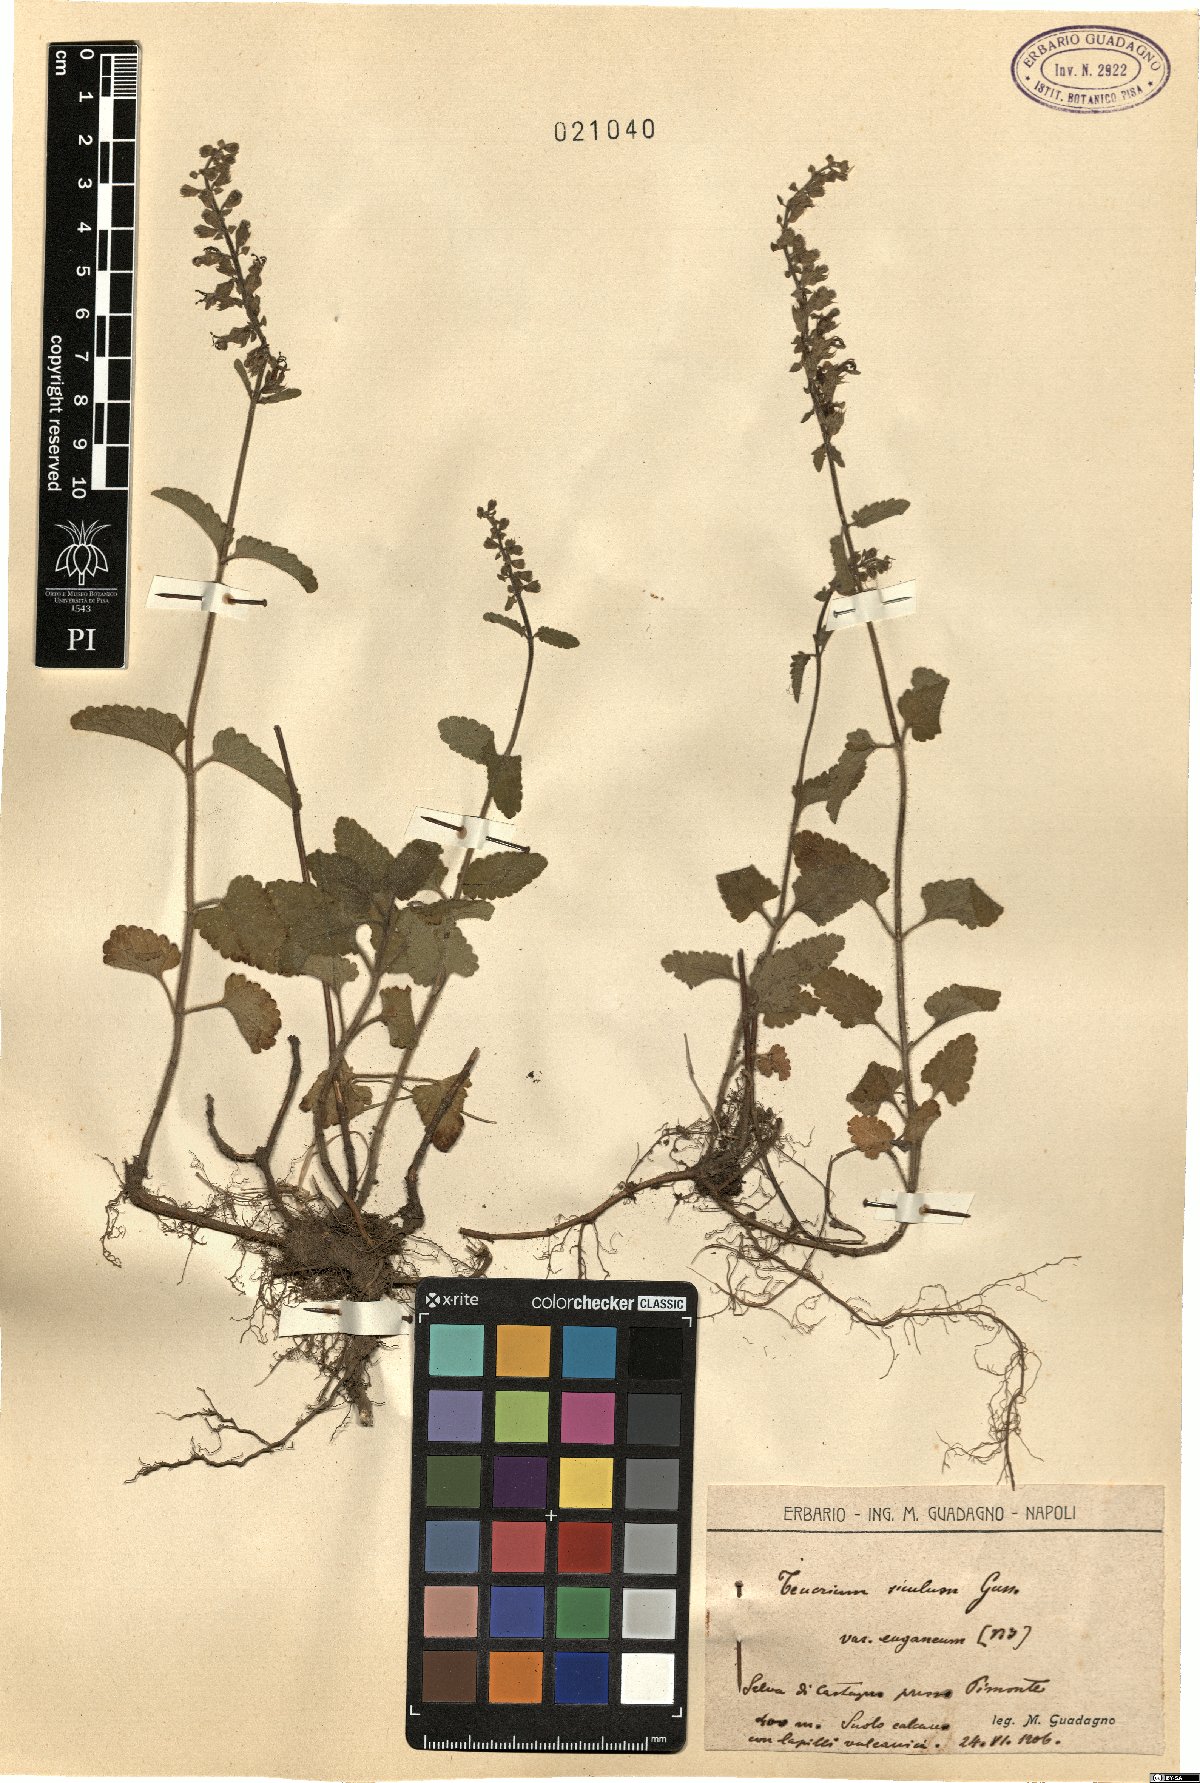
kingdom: Plantae
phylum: Tracheophyta
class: Magnoliopsida
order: Lamiales
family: Lamiaceae
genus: Teucrium
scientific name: Teucrium siculum
